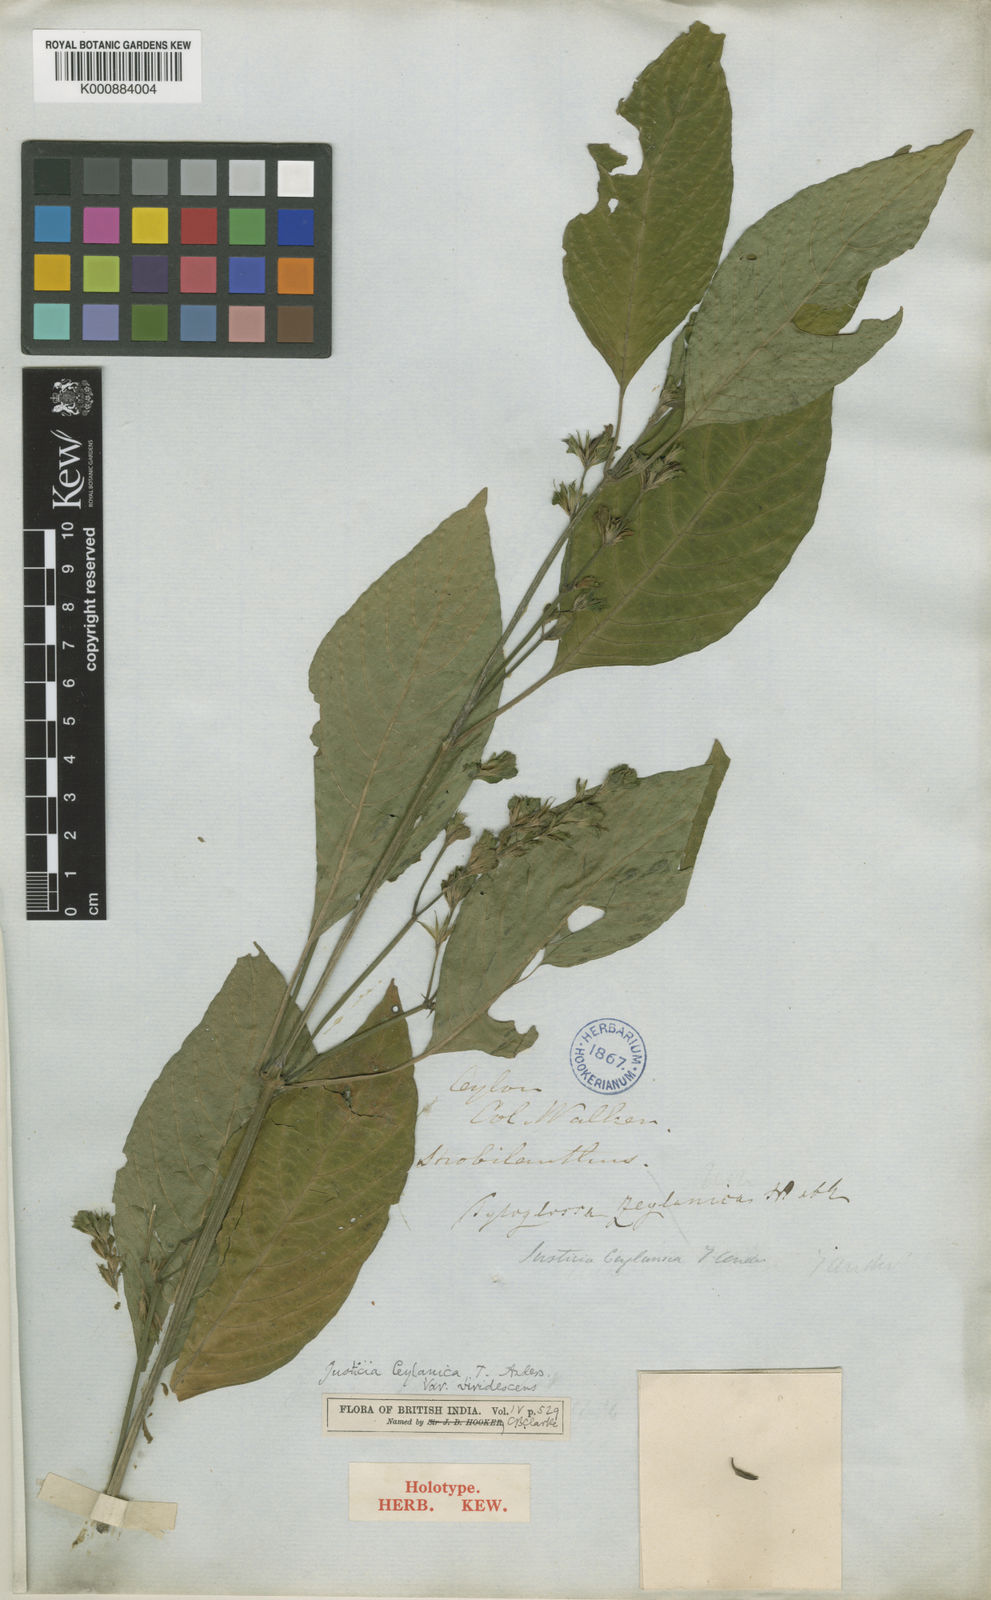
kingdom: Plantae
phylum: Tracheophyta
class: Magnoliopsida
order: Lamiales
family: Acanthaceae
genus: Justicia
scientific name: Justicia ceylanica
